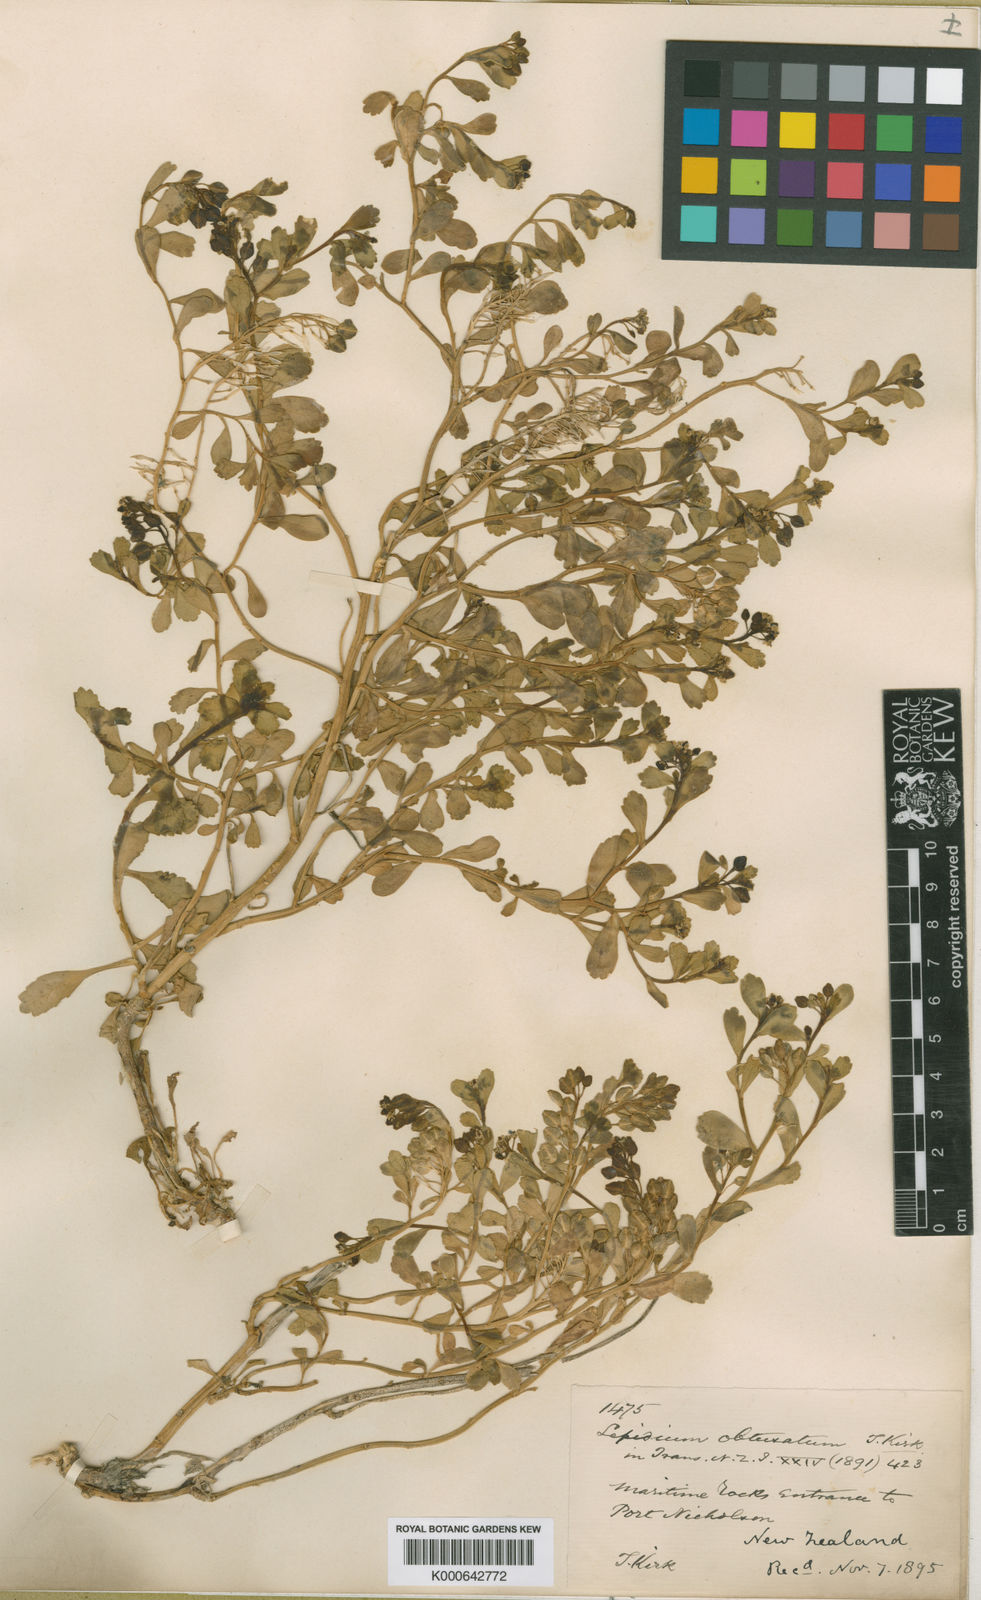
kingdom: Plantae
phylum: Tracheophyta
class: Magnoliopsida
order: Brassicales
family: Brassicaceae
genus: Lepidium
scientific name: Lepidium obtusatum
